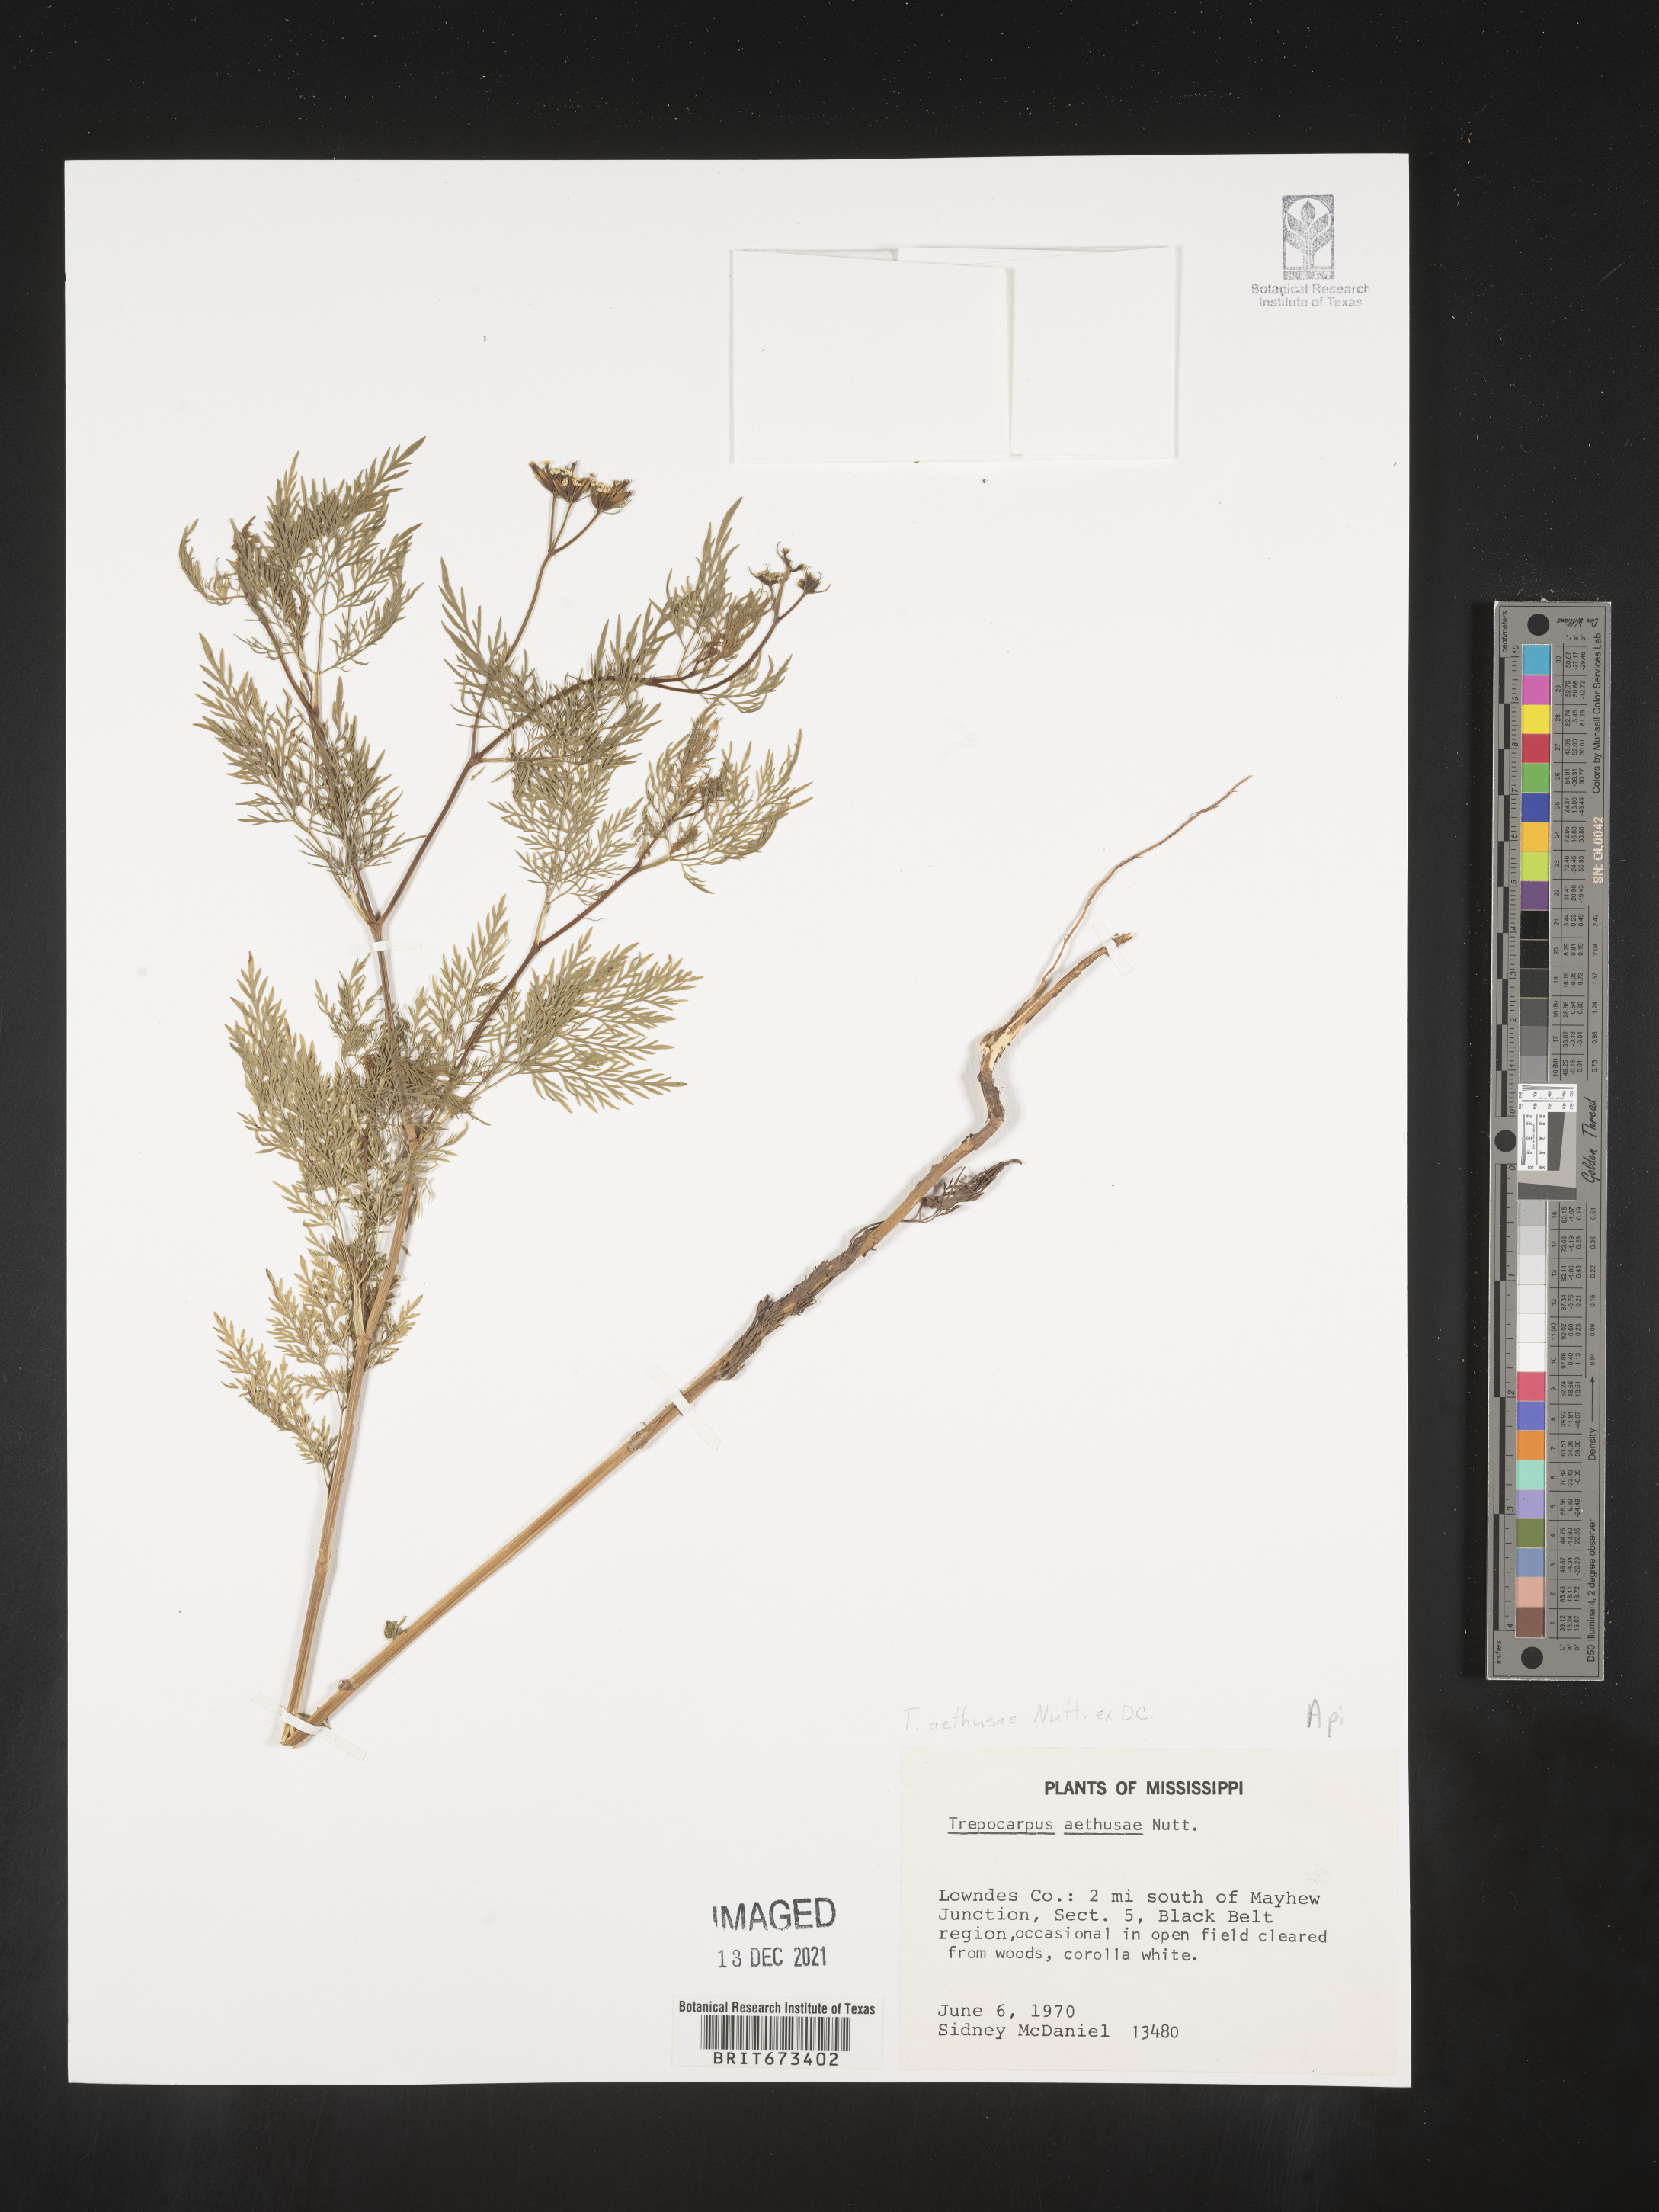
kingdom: Plantae
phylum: Tracheophyta
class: Magnoliopsida
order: Apiales
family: Apiaceae
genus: Trepocarpus
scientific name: Trepocarpus aethusae
